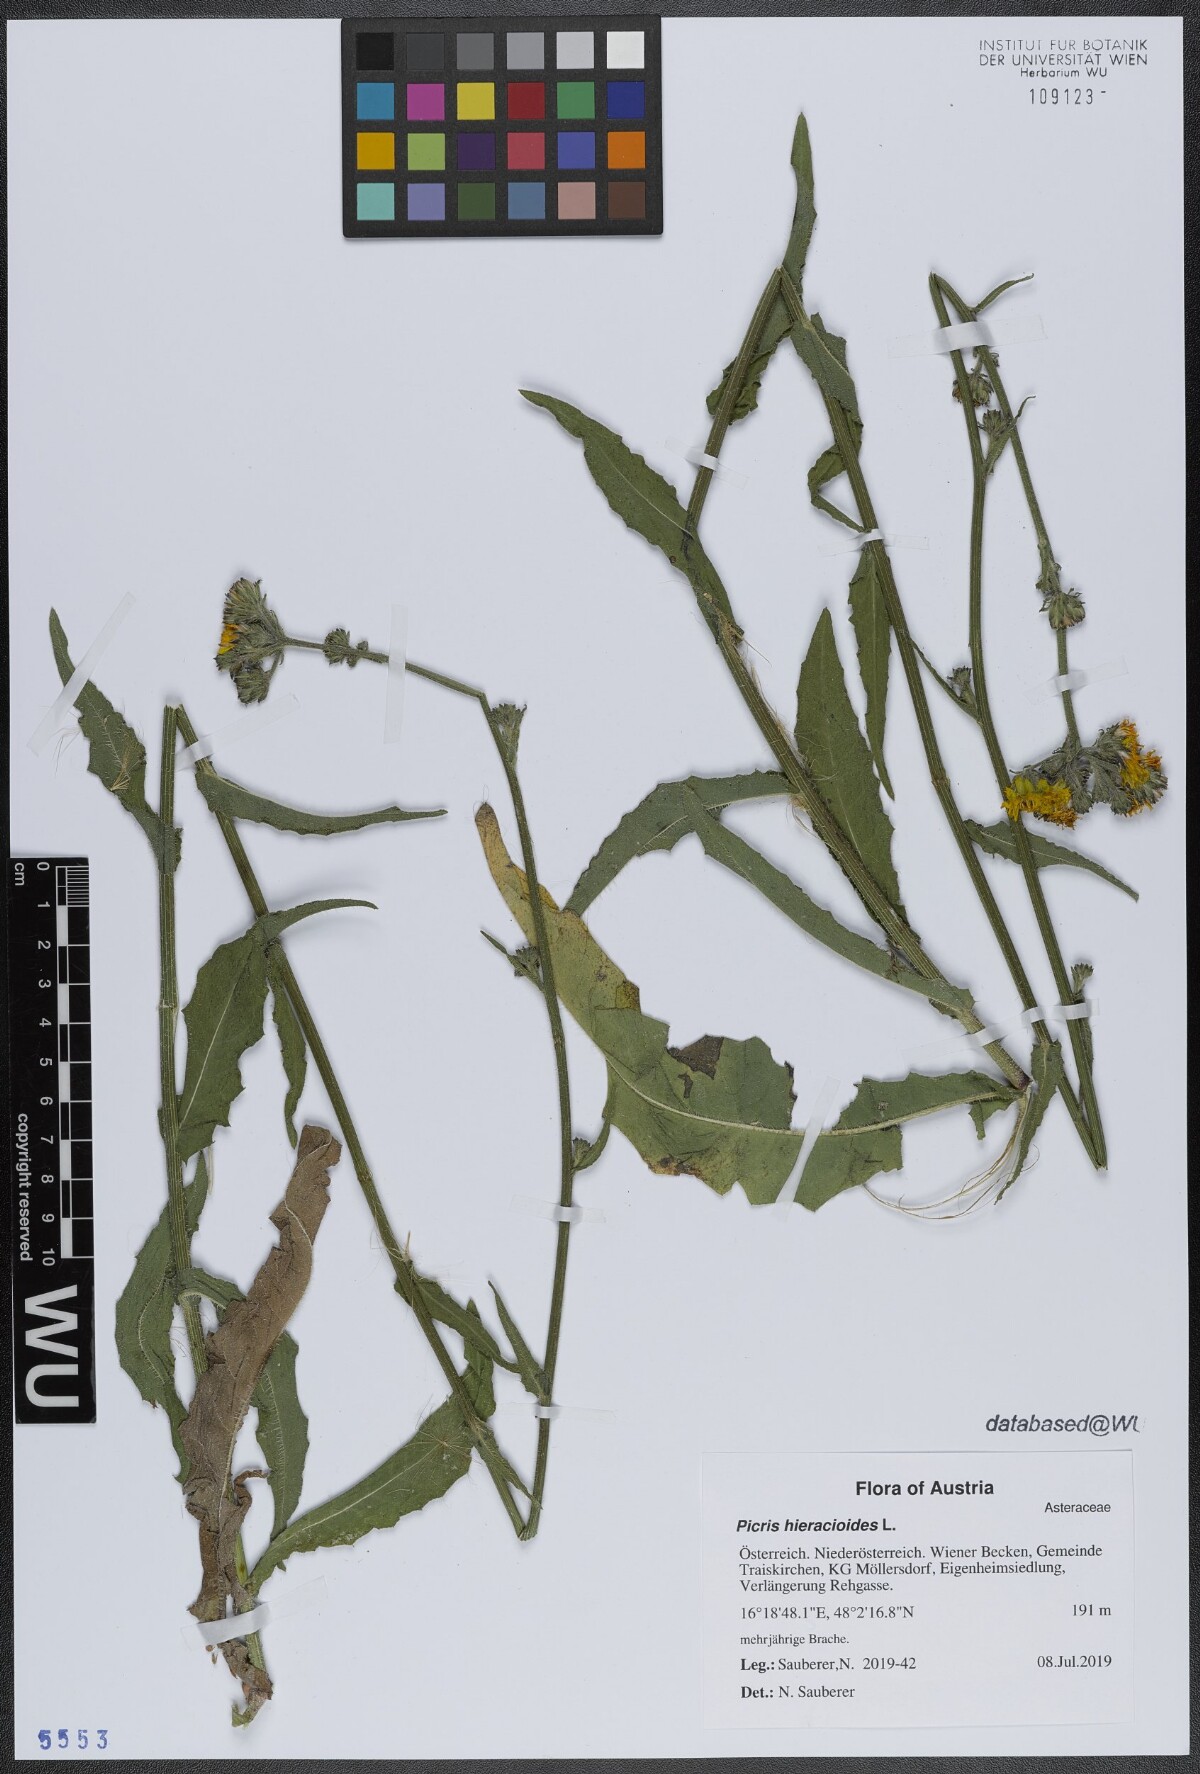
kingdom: Plantae
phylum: Tracheophyta
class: Magnoliopsida
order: Asterales
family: Asteraceae
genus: Picris
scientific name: Picris hieracioides
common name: Hawkweed oxtongue
